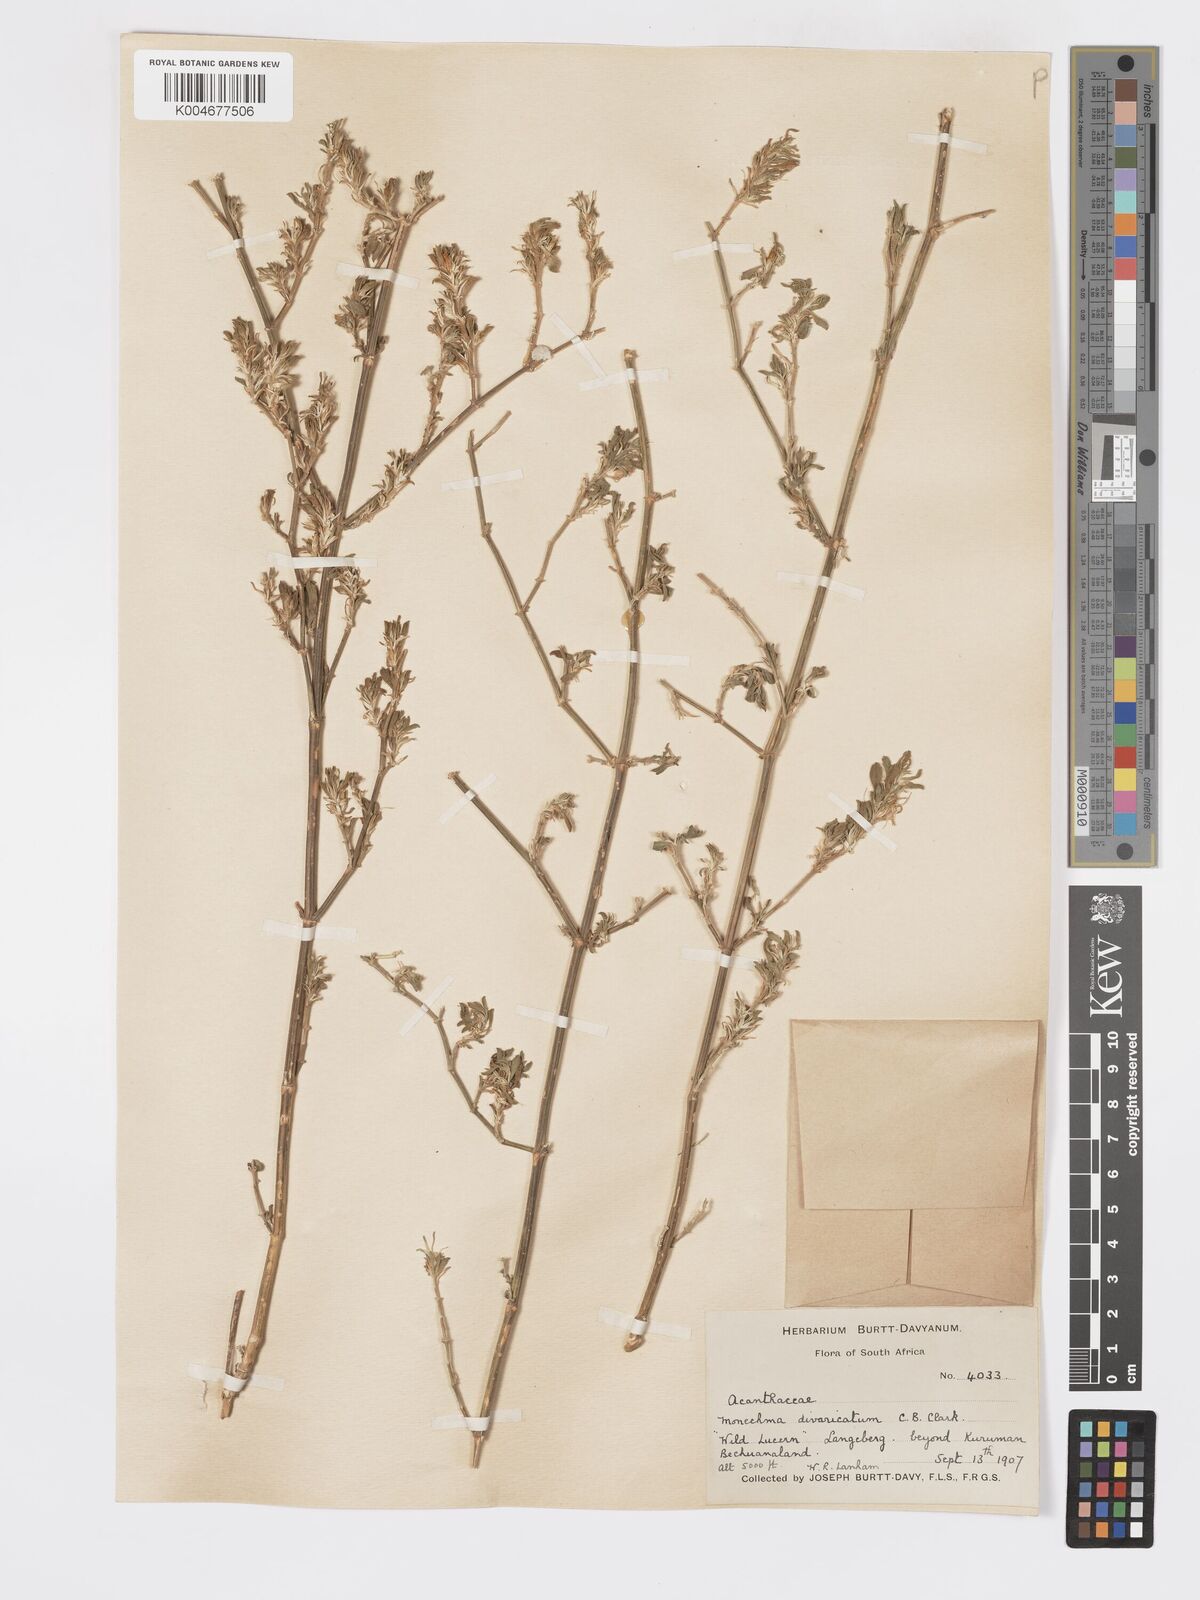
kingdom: Plantae
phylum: Tracheophyta
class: Magnoliopsida
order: Lamiales
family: Acanthaceae
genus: Pogonospermum
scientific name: Pogonospermum
